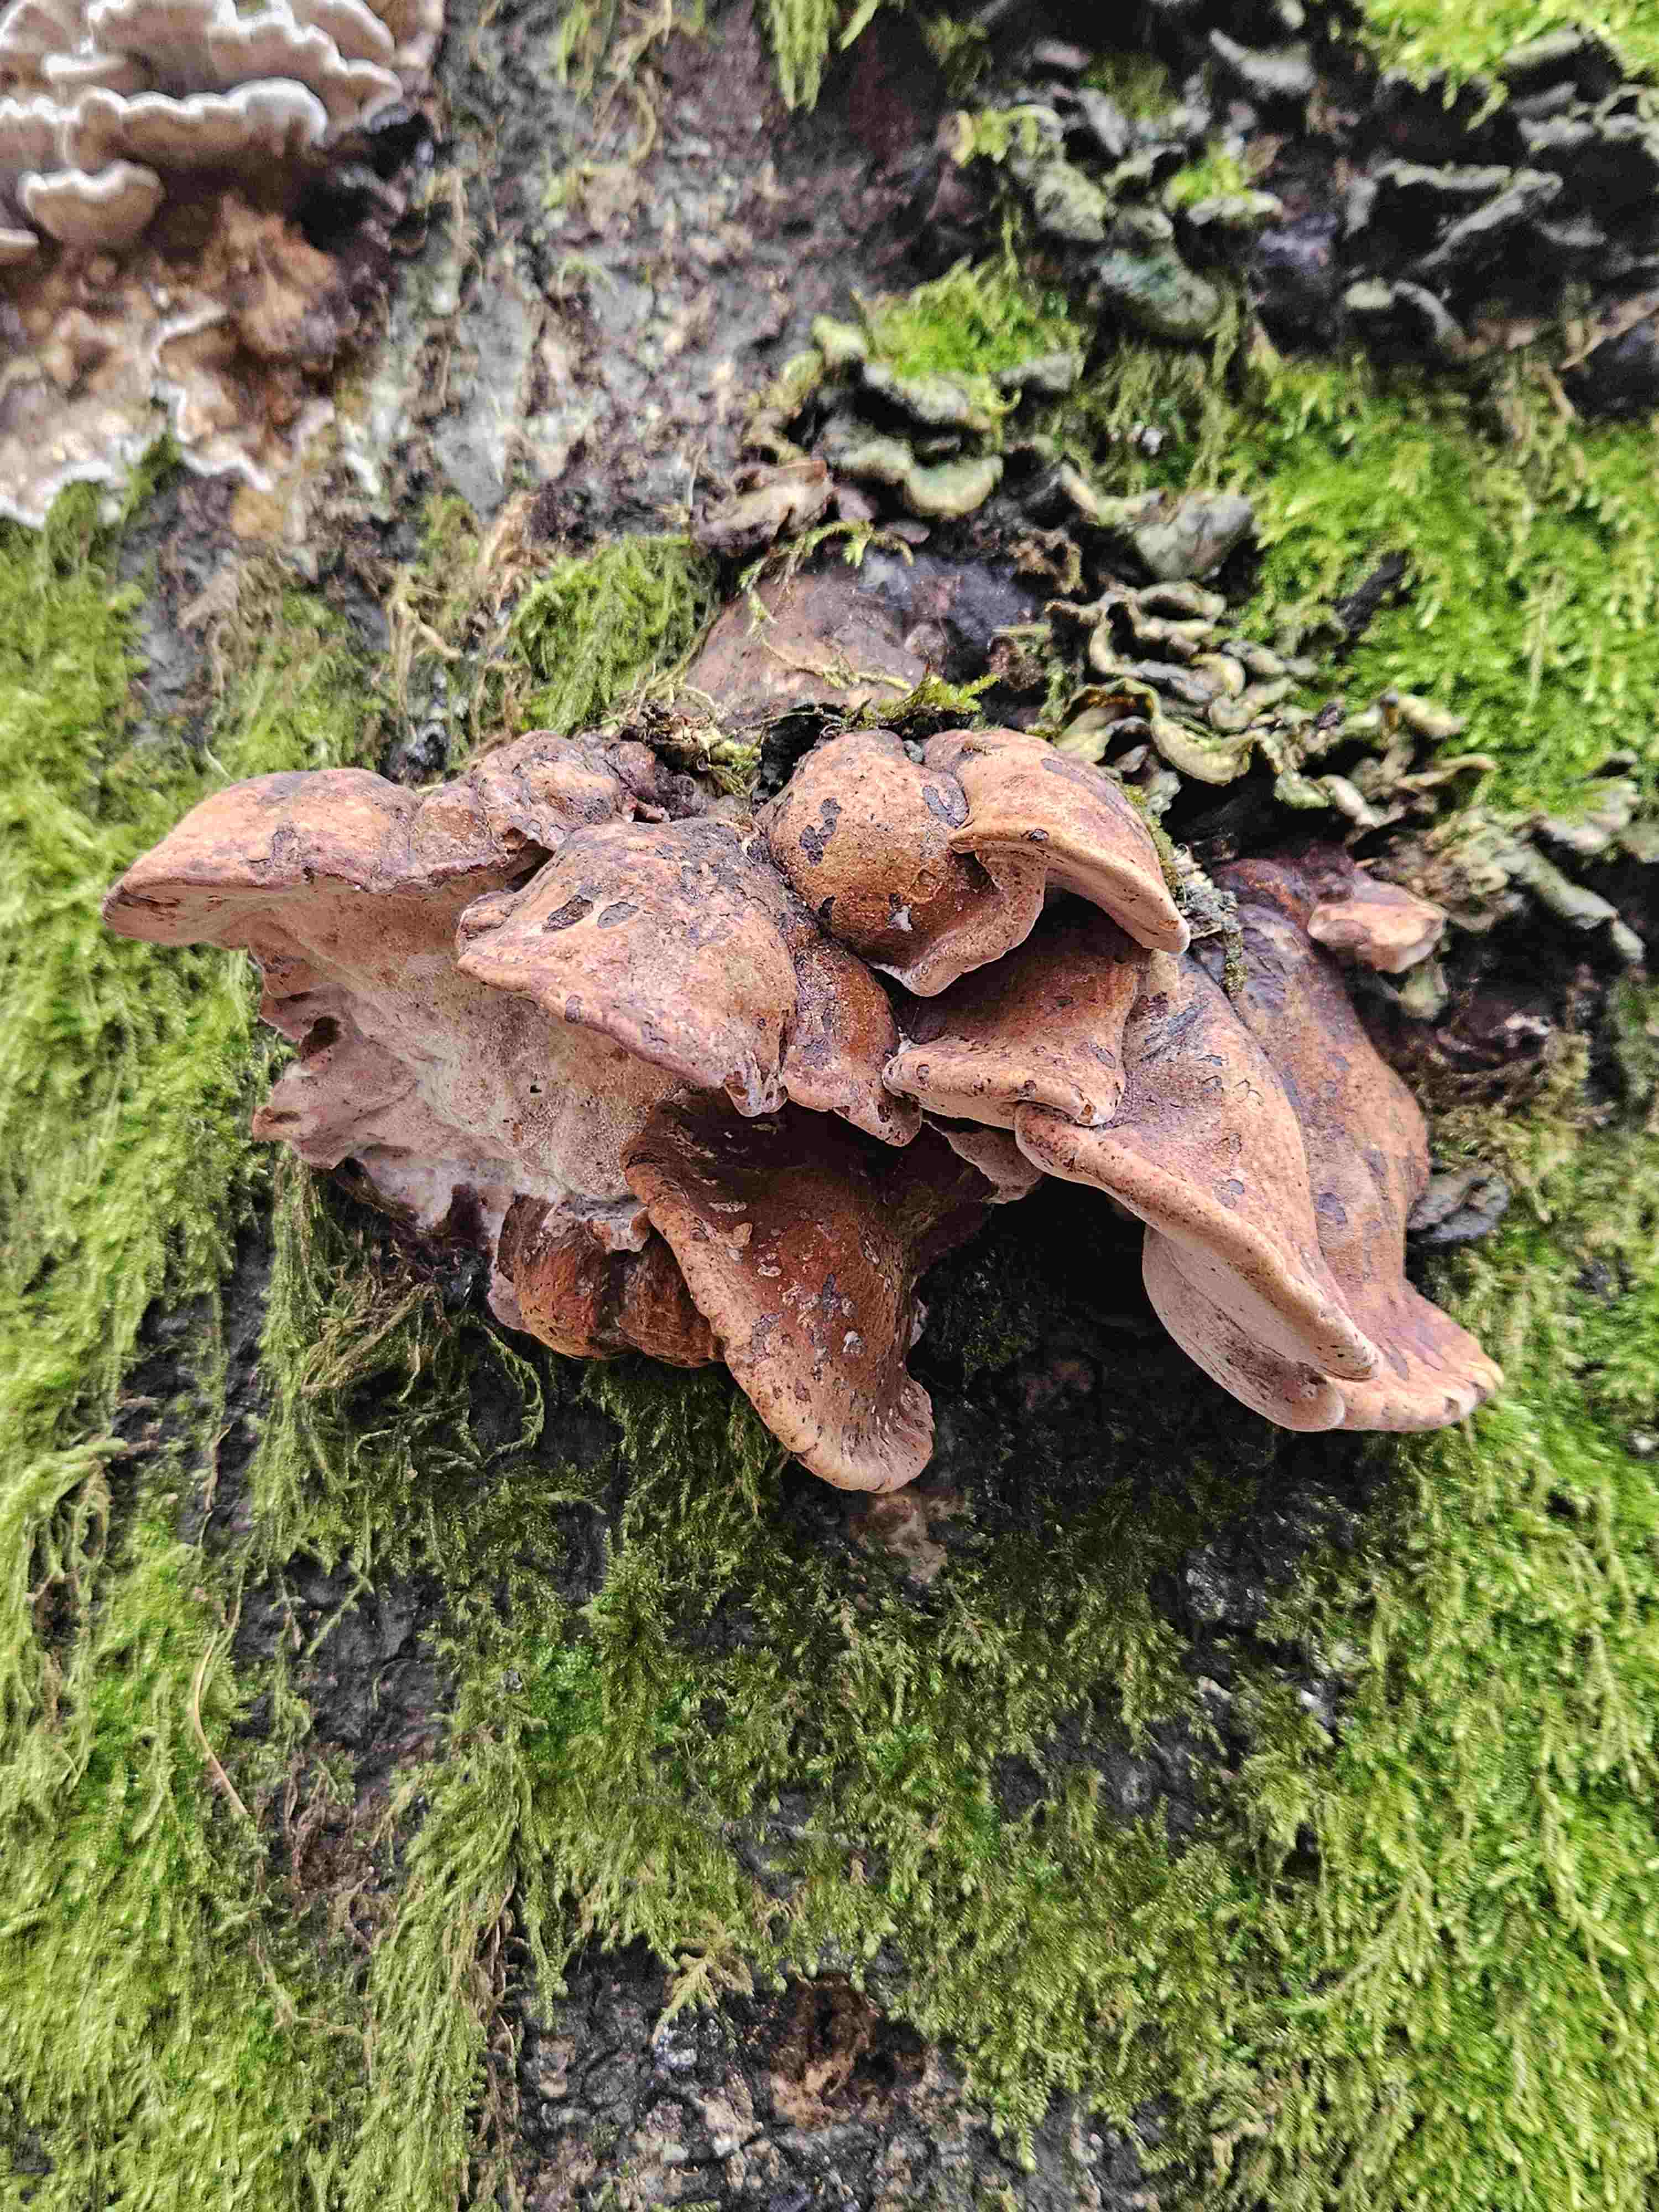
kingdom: Fungi
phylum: Basidiomycota
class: Agaricomycetes
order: Polyporales
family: Ischnodermataceae
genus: Ischnoderma
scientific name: Ischnoderma resinosum
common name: løv-tjæreporesvamp
